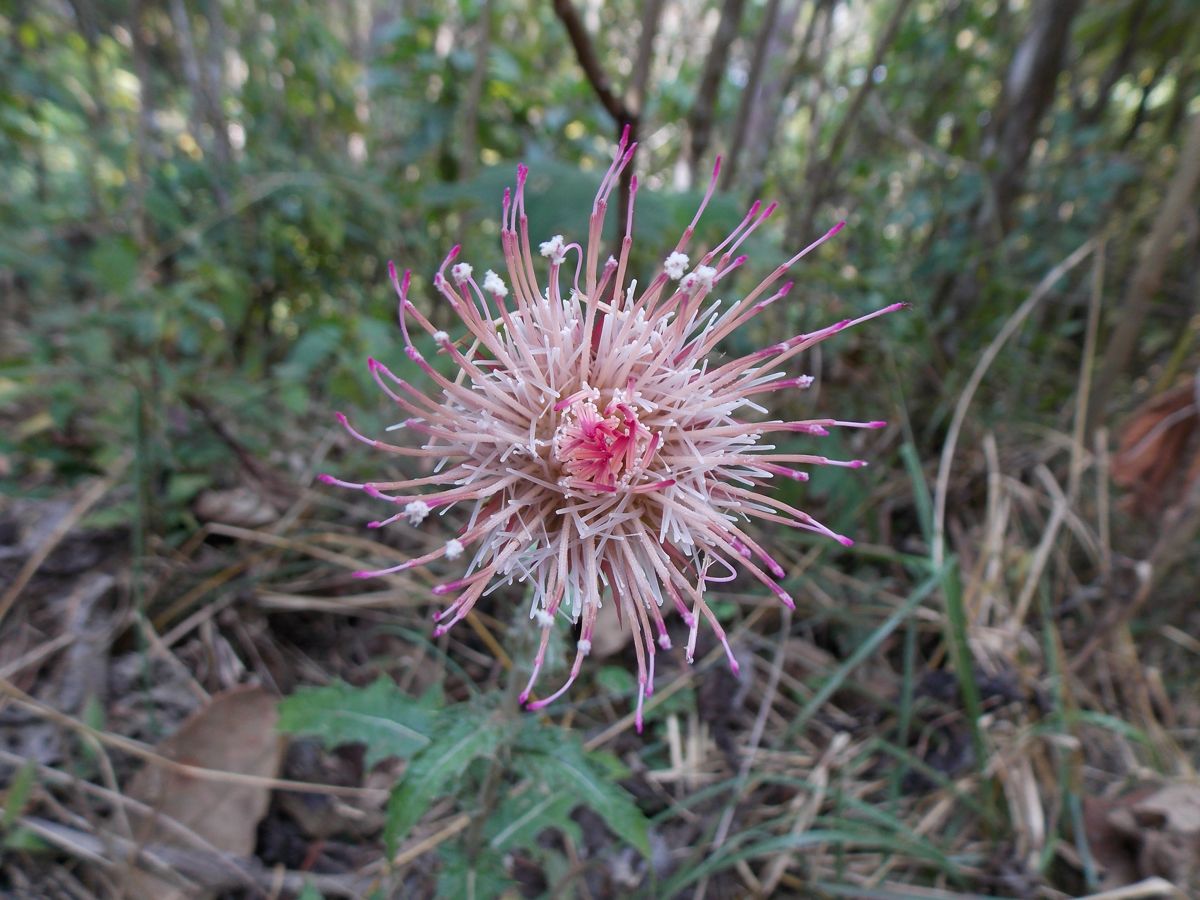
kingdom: Plantae
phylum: Tracheophyta
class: Magnoliopsida
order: Asterales
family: Asteraceae
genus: Cirsium
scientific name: Cirsium mexicanum
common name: Mexican thistle
